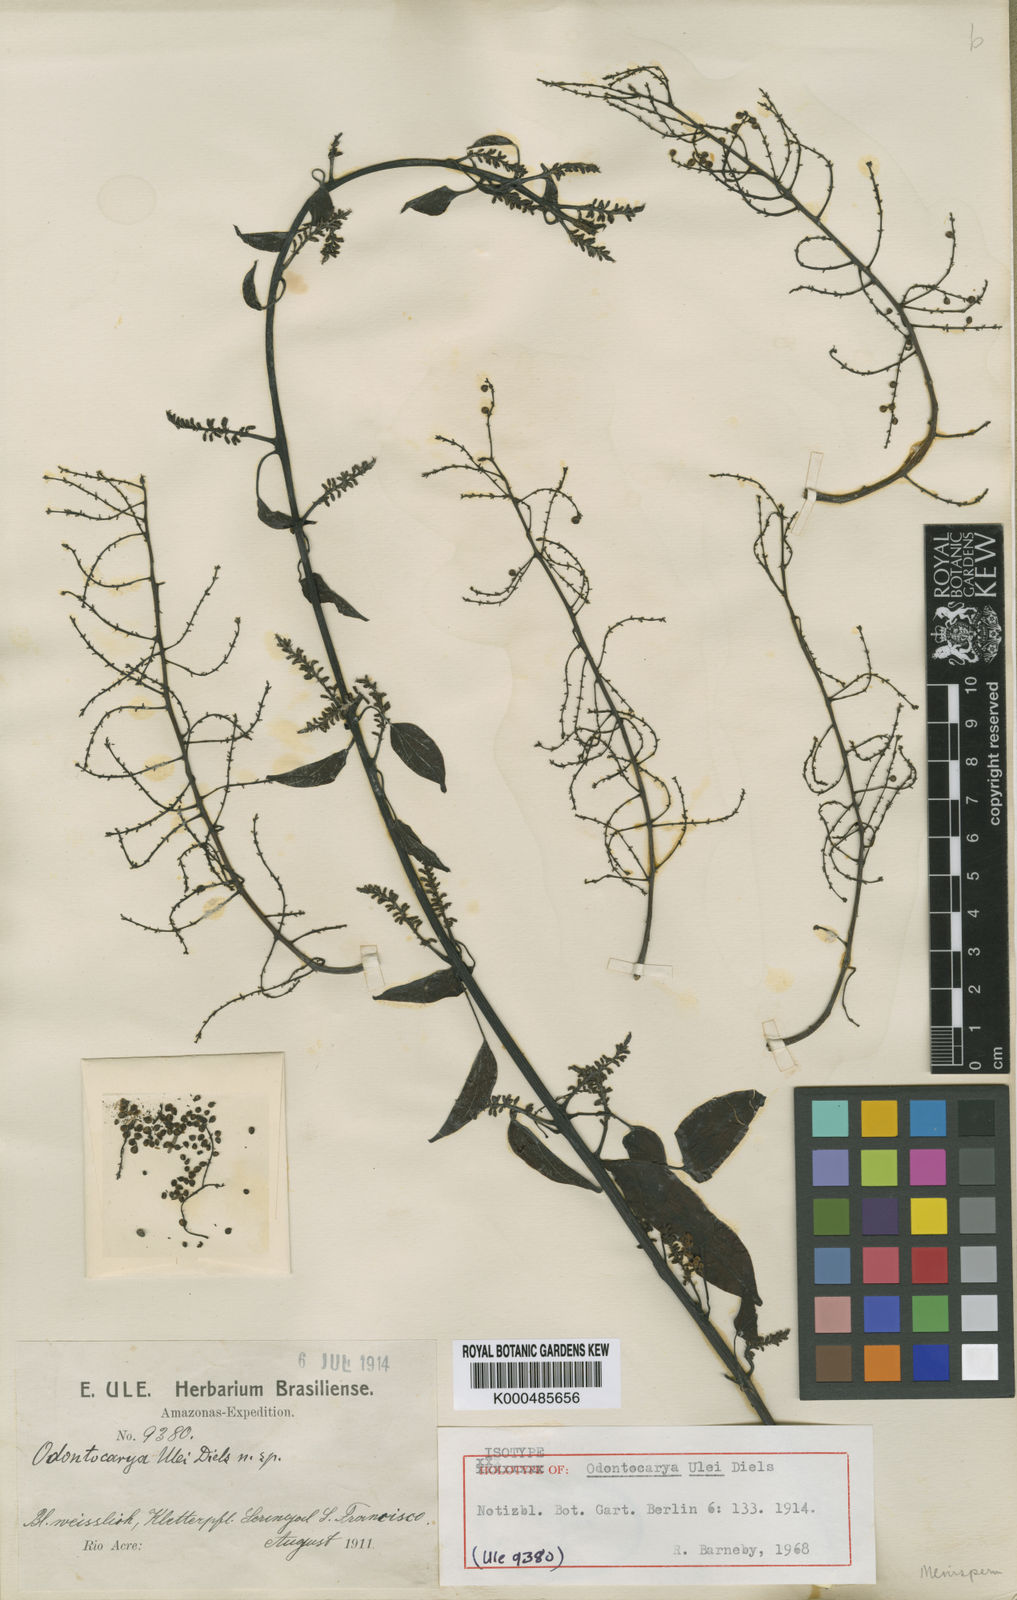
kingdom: Plantae
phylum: Tracheophyta
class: Magnoliopsida
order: Ranunculales
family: Menispermaceae
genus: Odontocarya
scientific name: Odontocarya ulei
